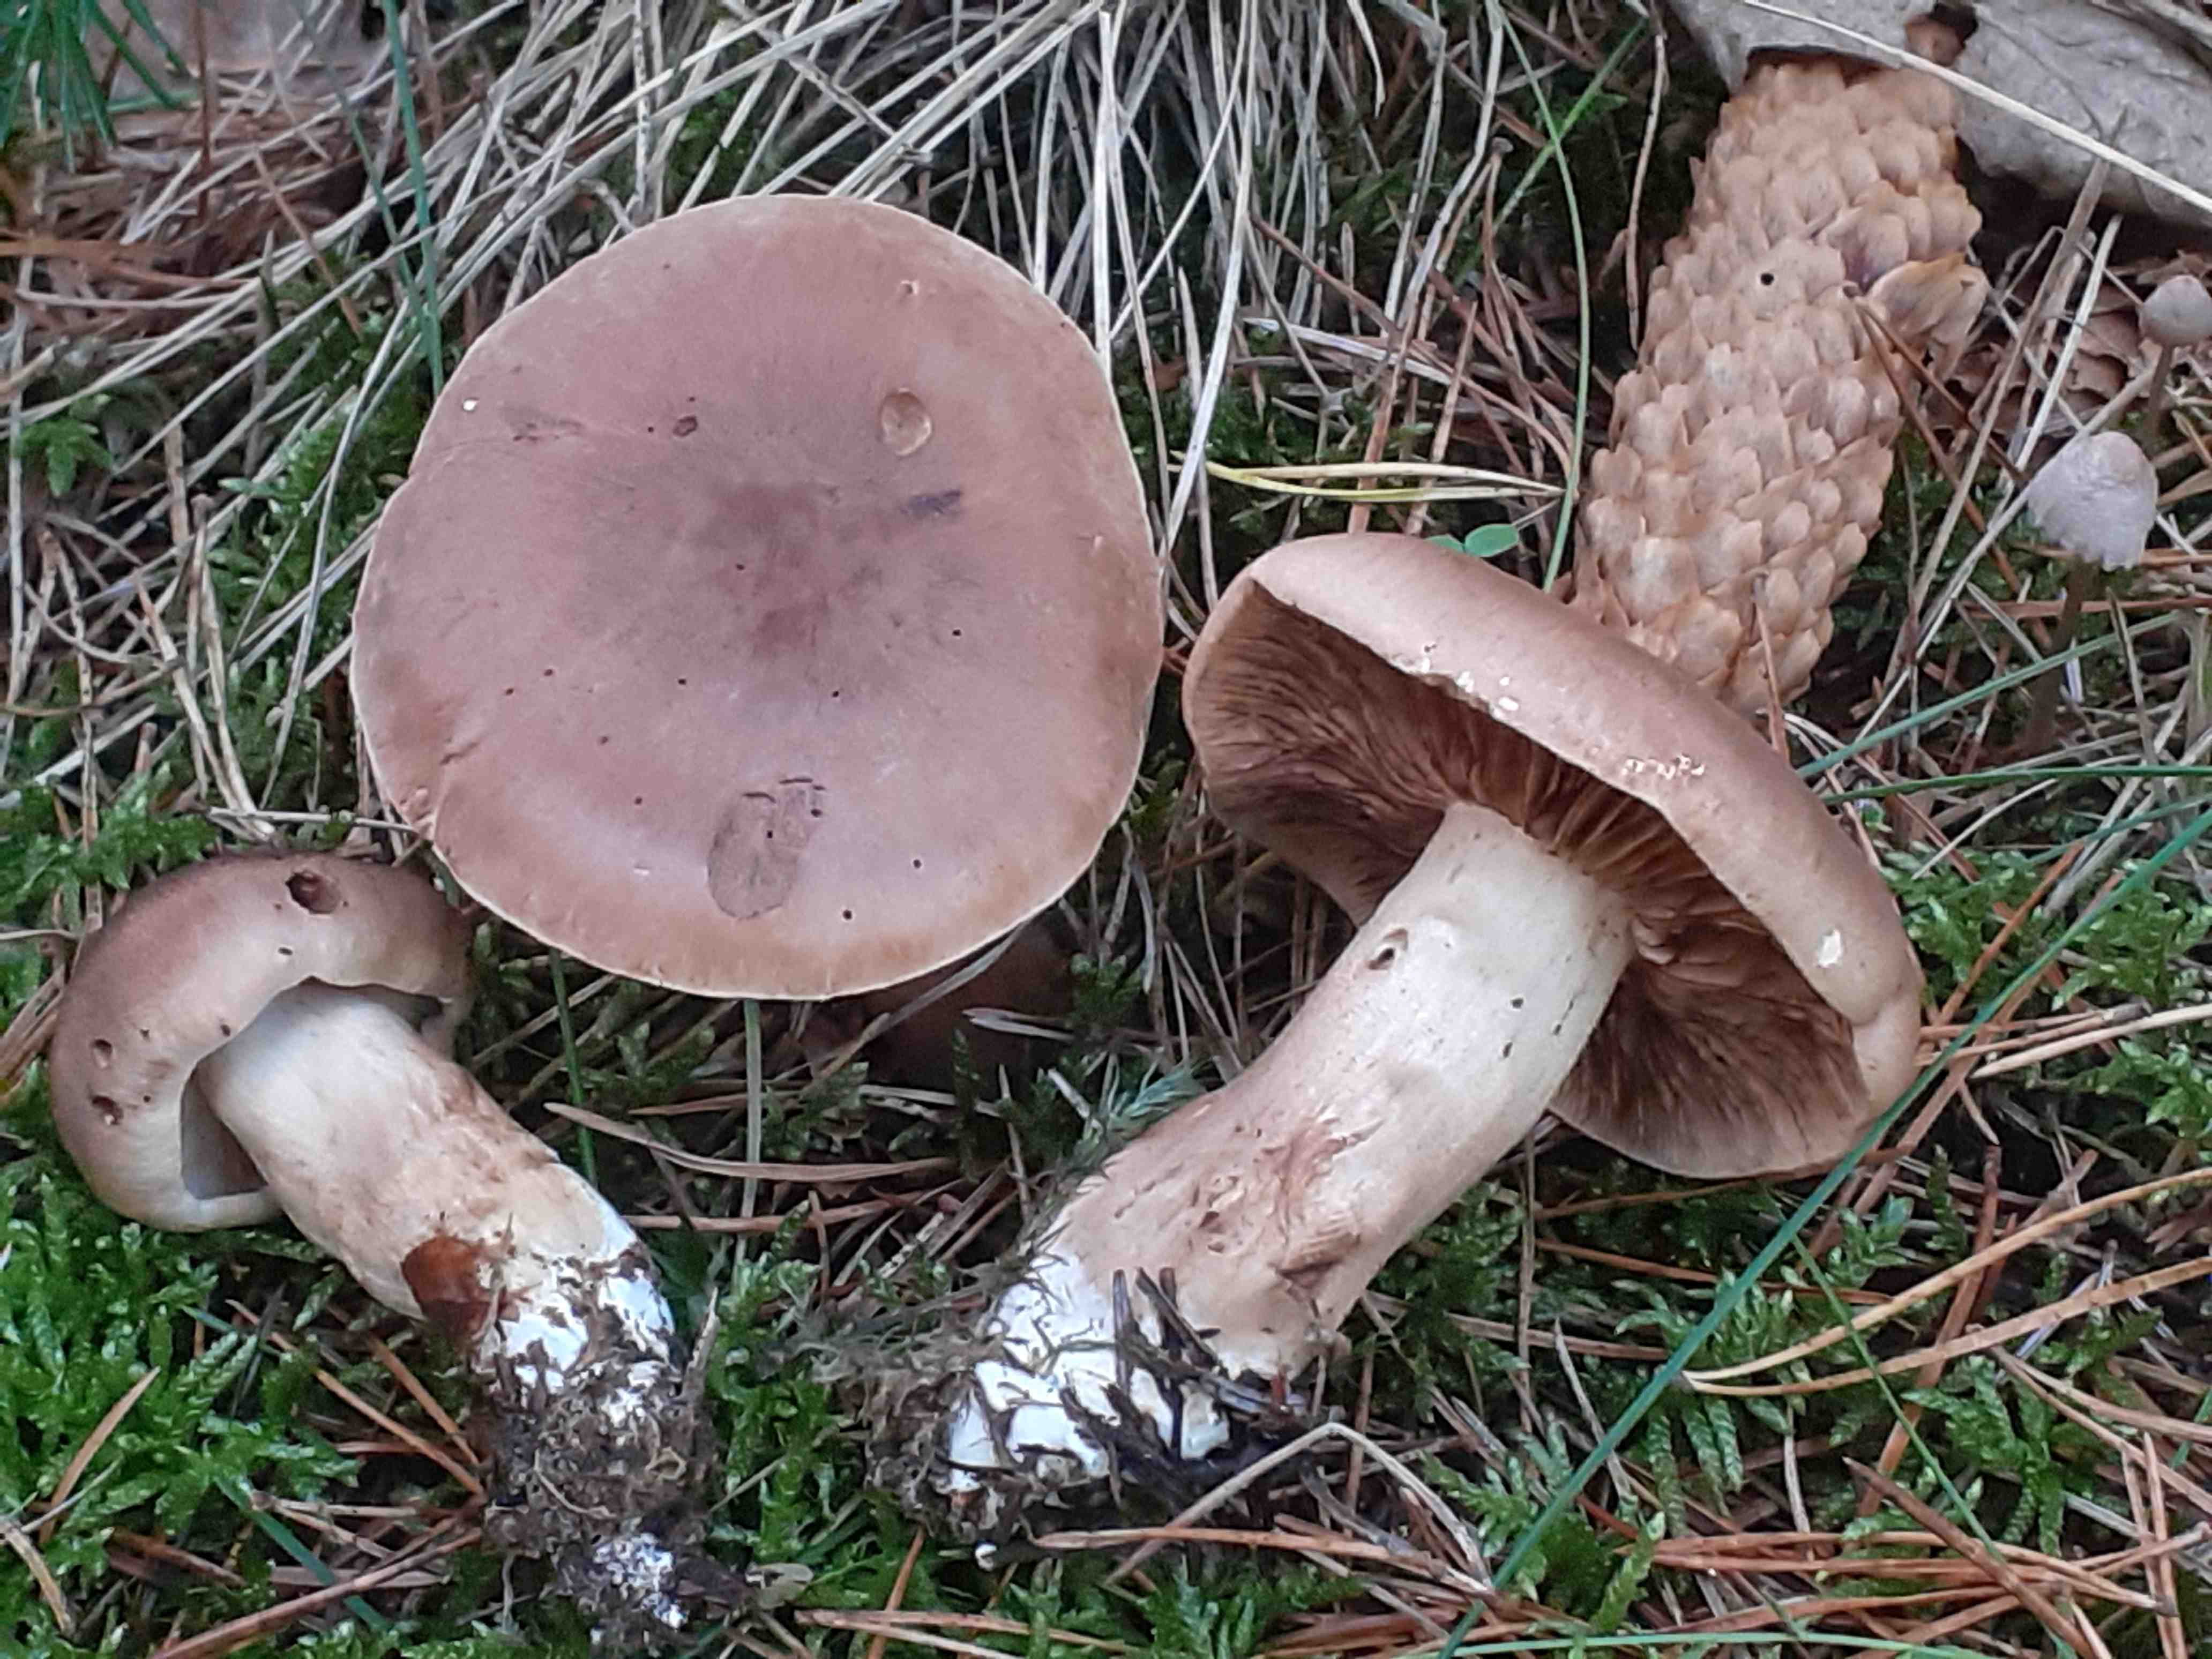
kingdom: Fungi
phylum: Basidiomycota
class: Agaricomycetes
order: Agaricales
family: Tricholomataceae
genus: Tricholoma
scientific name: Tricholoma imbricatum
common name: skællet ridderhat
